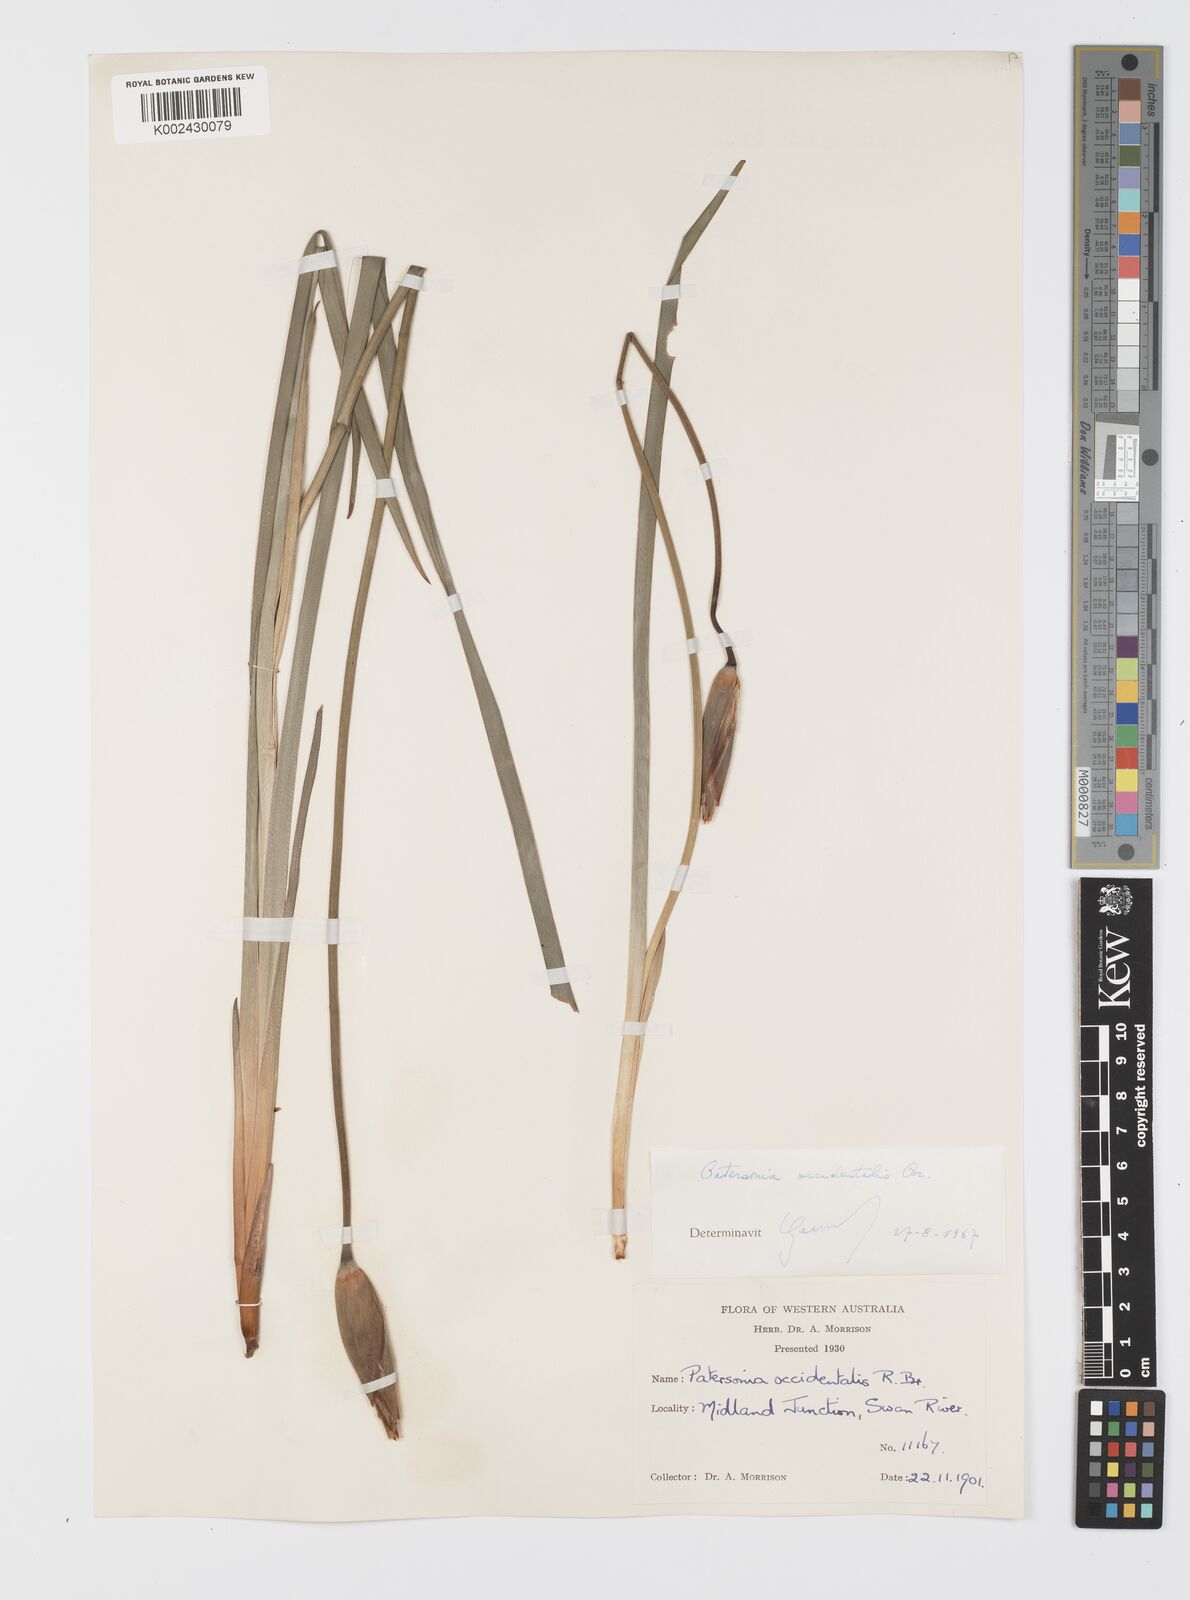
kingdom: Plantae
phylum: Tracheophyta
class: Liliopsida
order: Asparagales
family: Iridaceae
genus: Patersonia
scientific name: Patersonia occidentalis
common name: Long purple-flag
